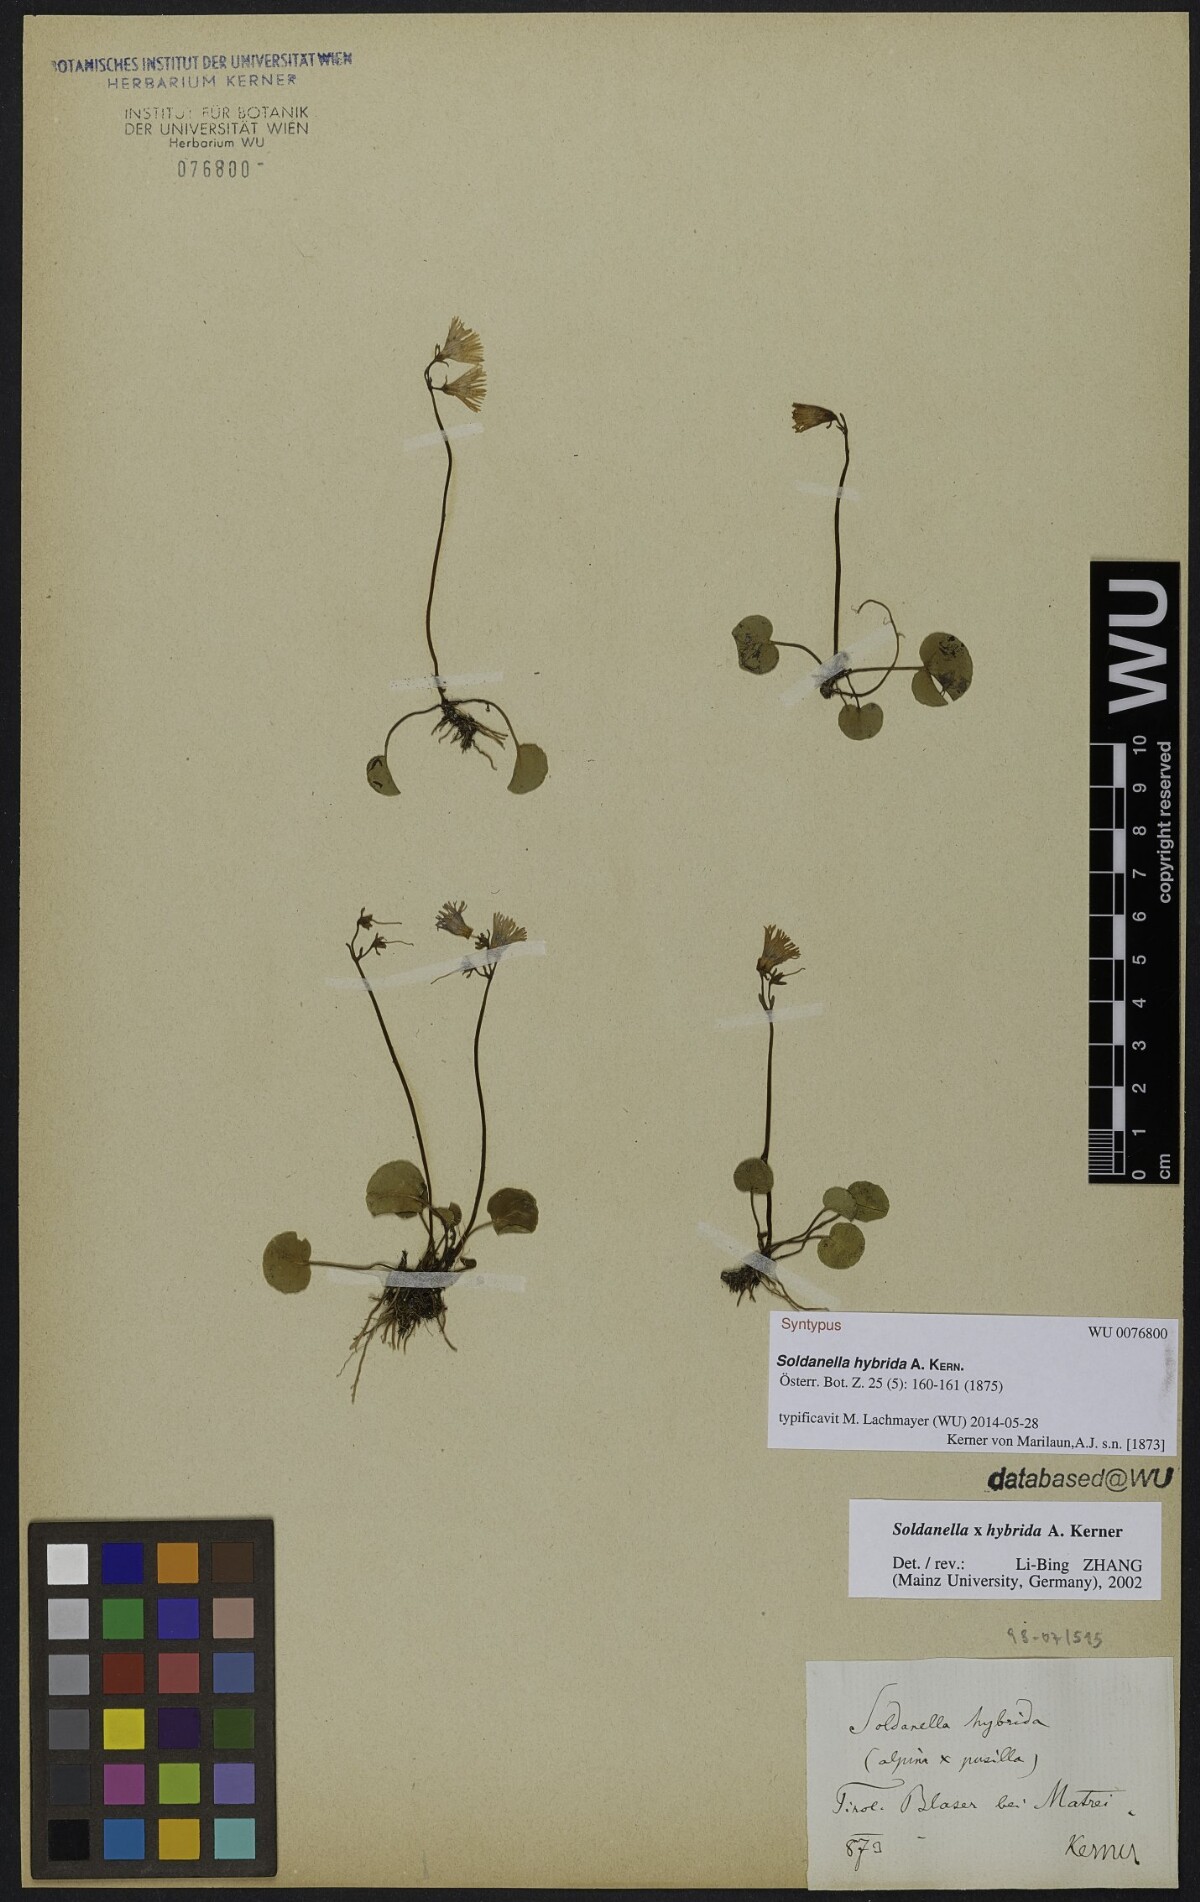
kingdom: Plantae
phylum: Tracheophyta
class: Magnoliopsida
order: Ericales
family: Primulaceae
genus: Soldanella
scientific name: Soldanella hybrida
